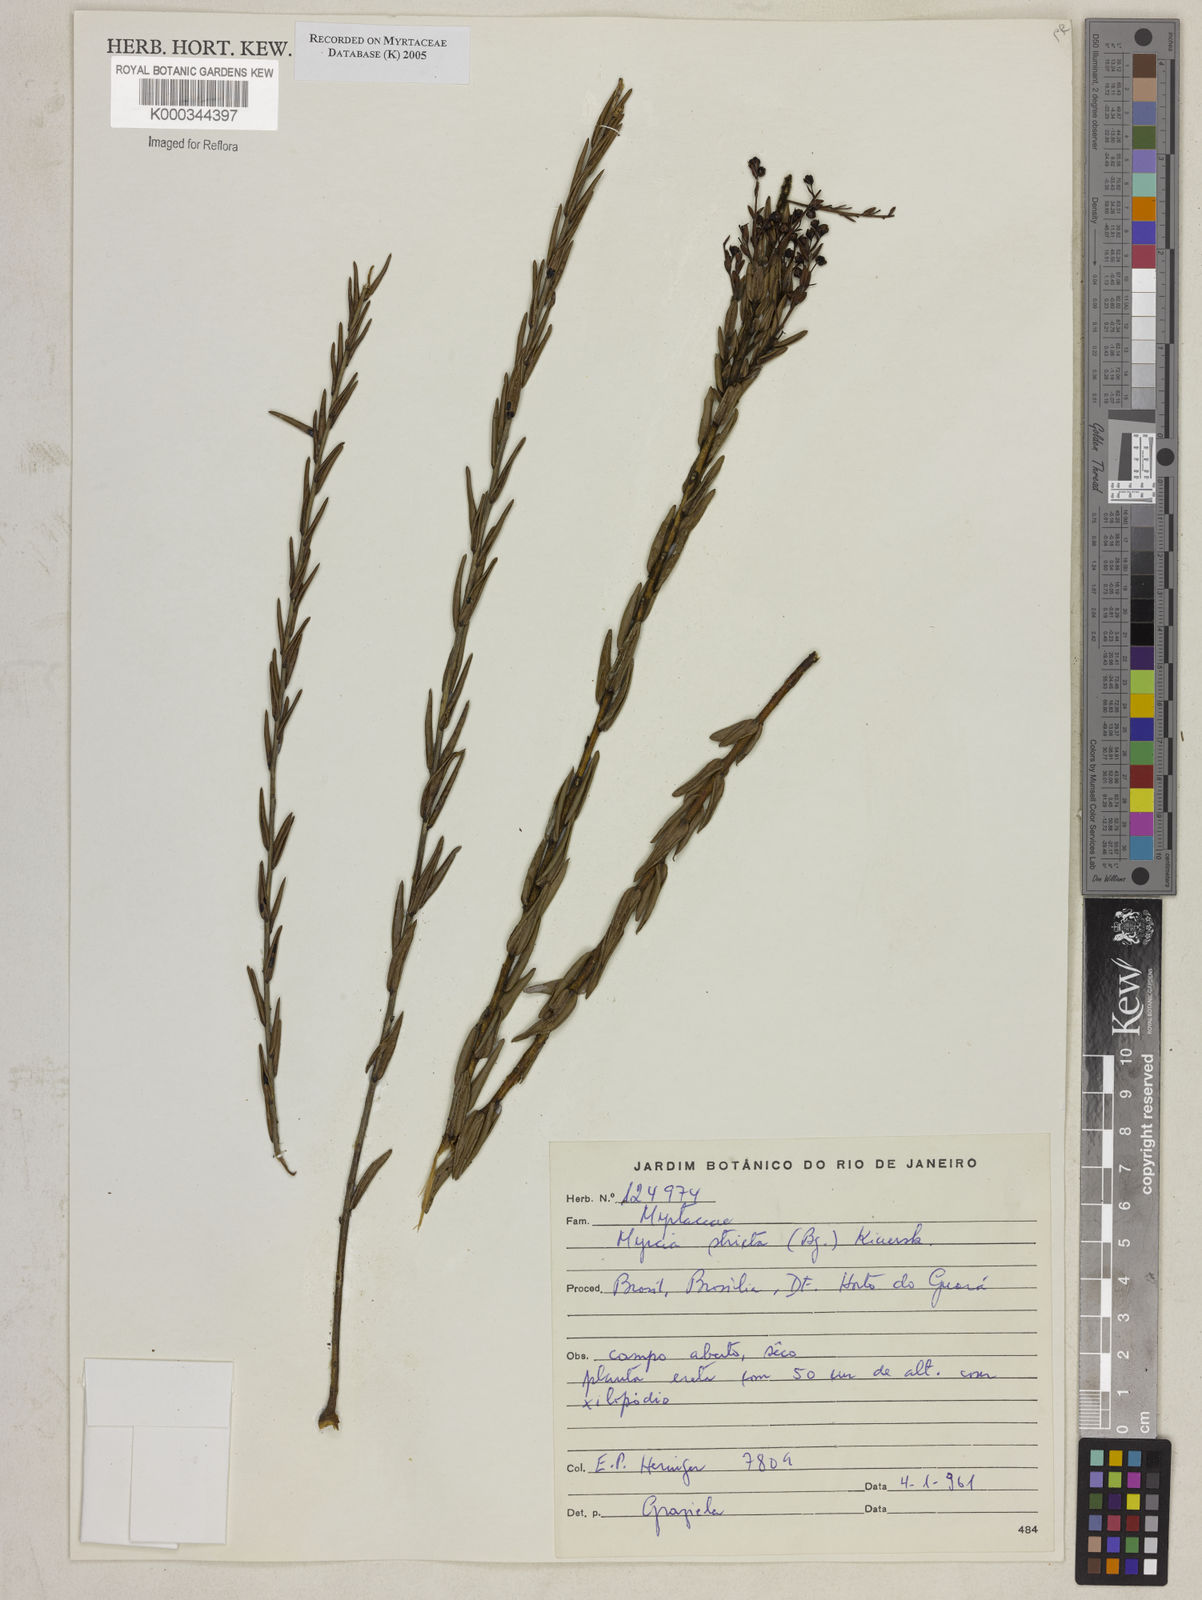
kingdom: Plantae
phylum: Tracheophyta
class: Magnoliopsida
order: Myrtales
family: Myrtaceae
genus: Myrcia
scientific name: Myrcia stricta
